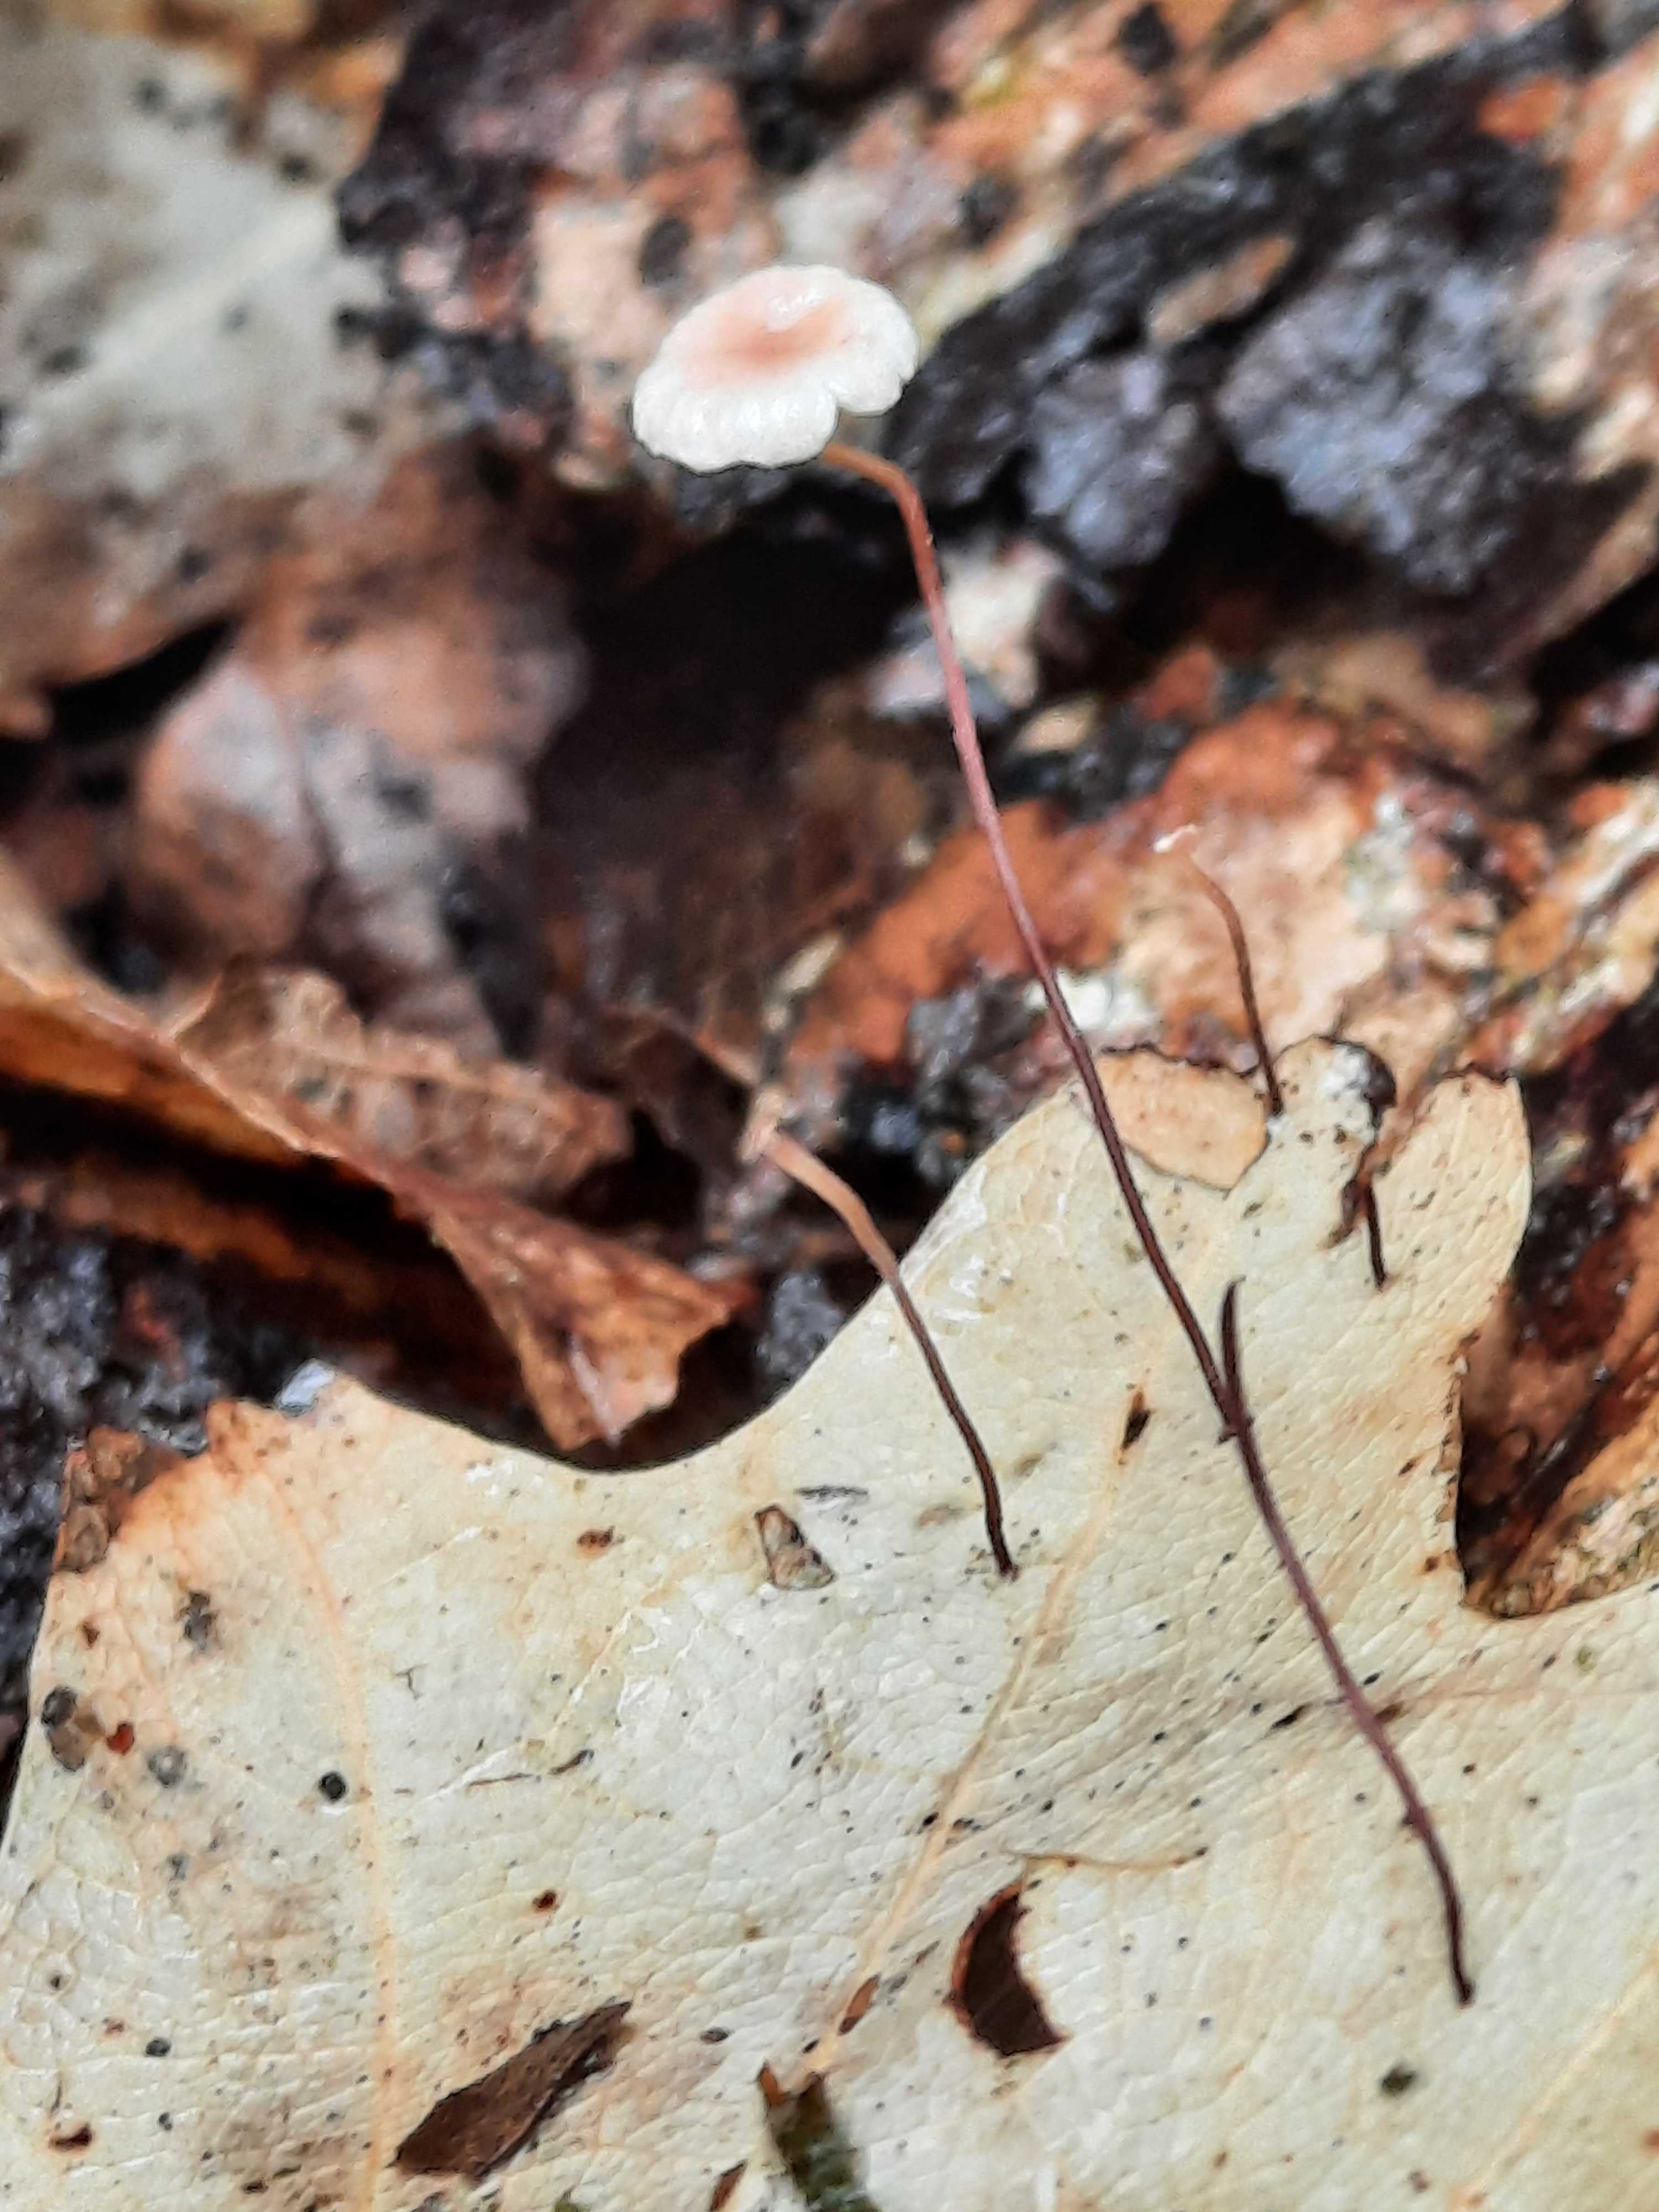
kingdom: Fungi
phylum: Basidiomycota
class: Agaricomycetes
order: Agaricales
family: Omphalotaceae
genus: Collybiopsis
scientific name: Collybiopsis quercophila
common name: egeblads-bruskhat
